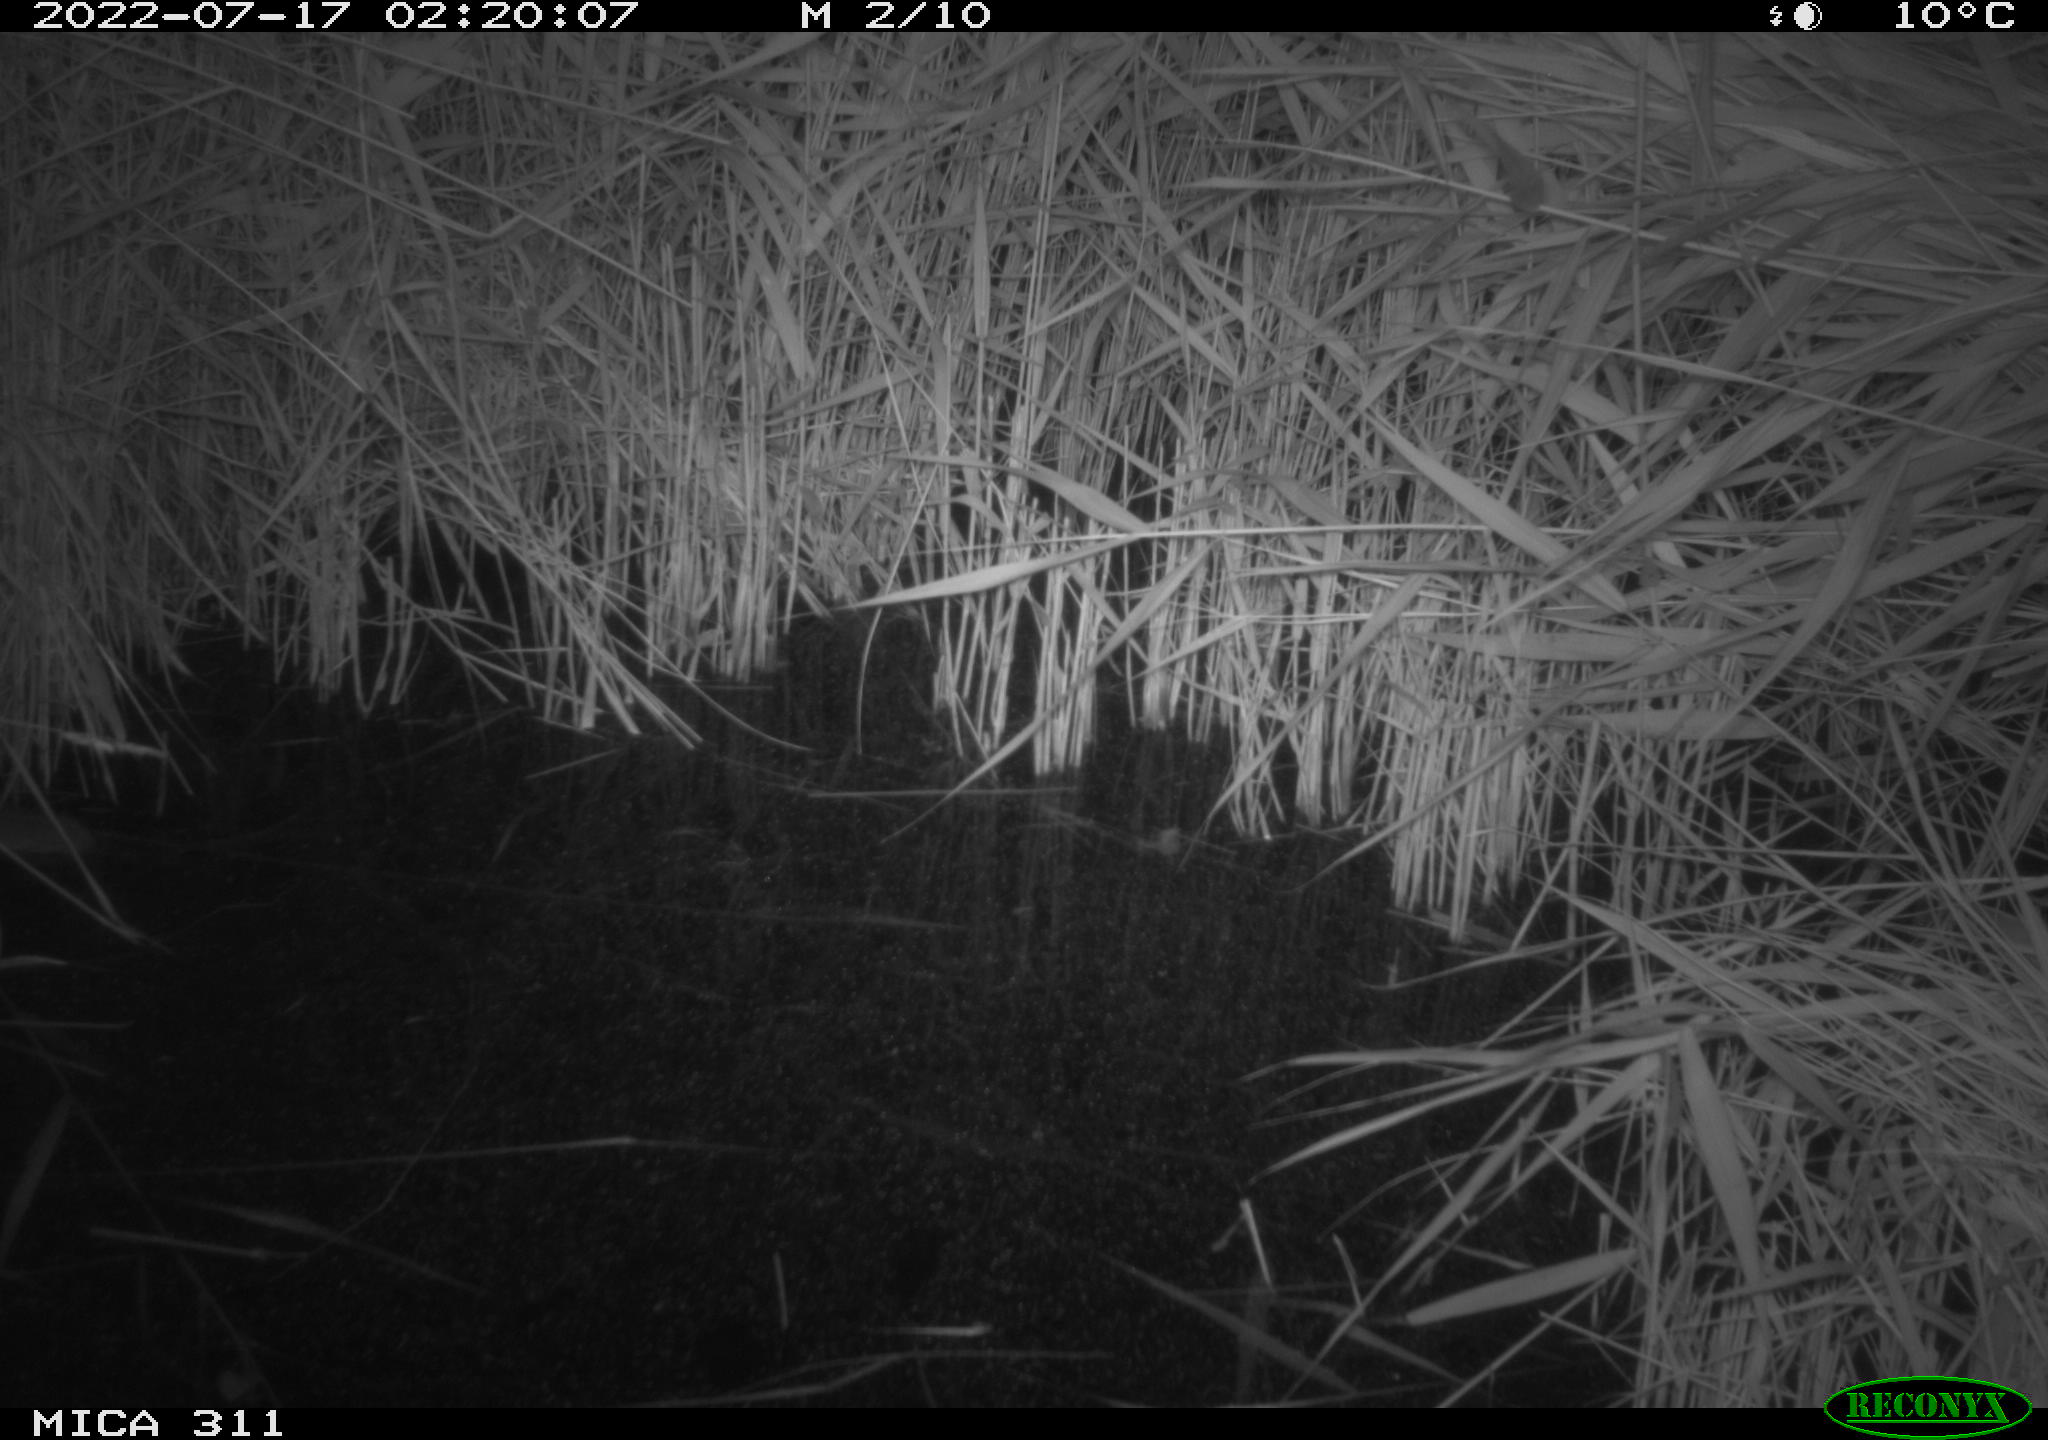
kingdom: Animalia
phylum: Chordata
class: Mammalia
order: Rodentia
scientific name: Rodentia
